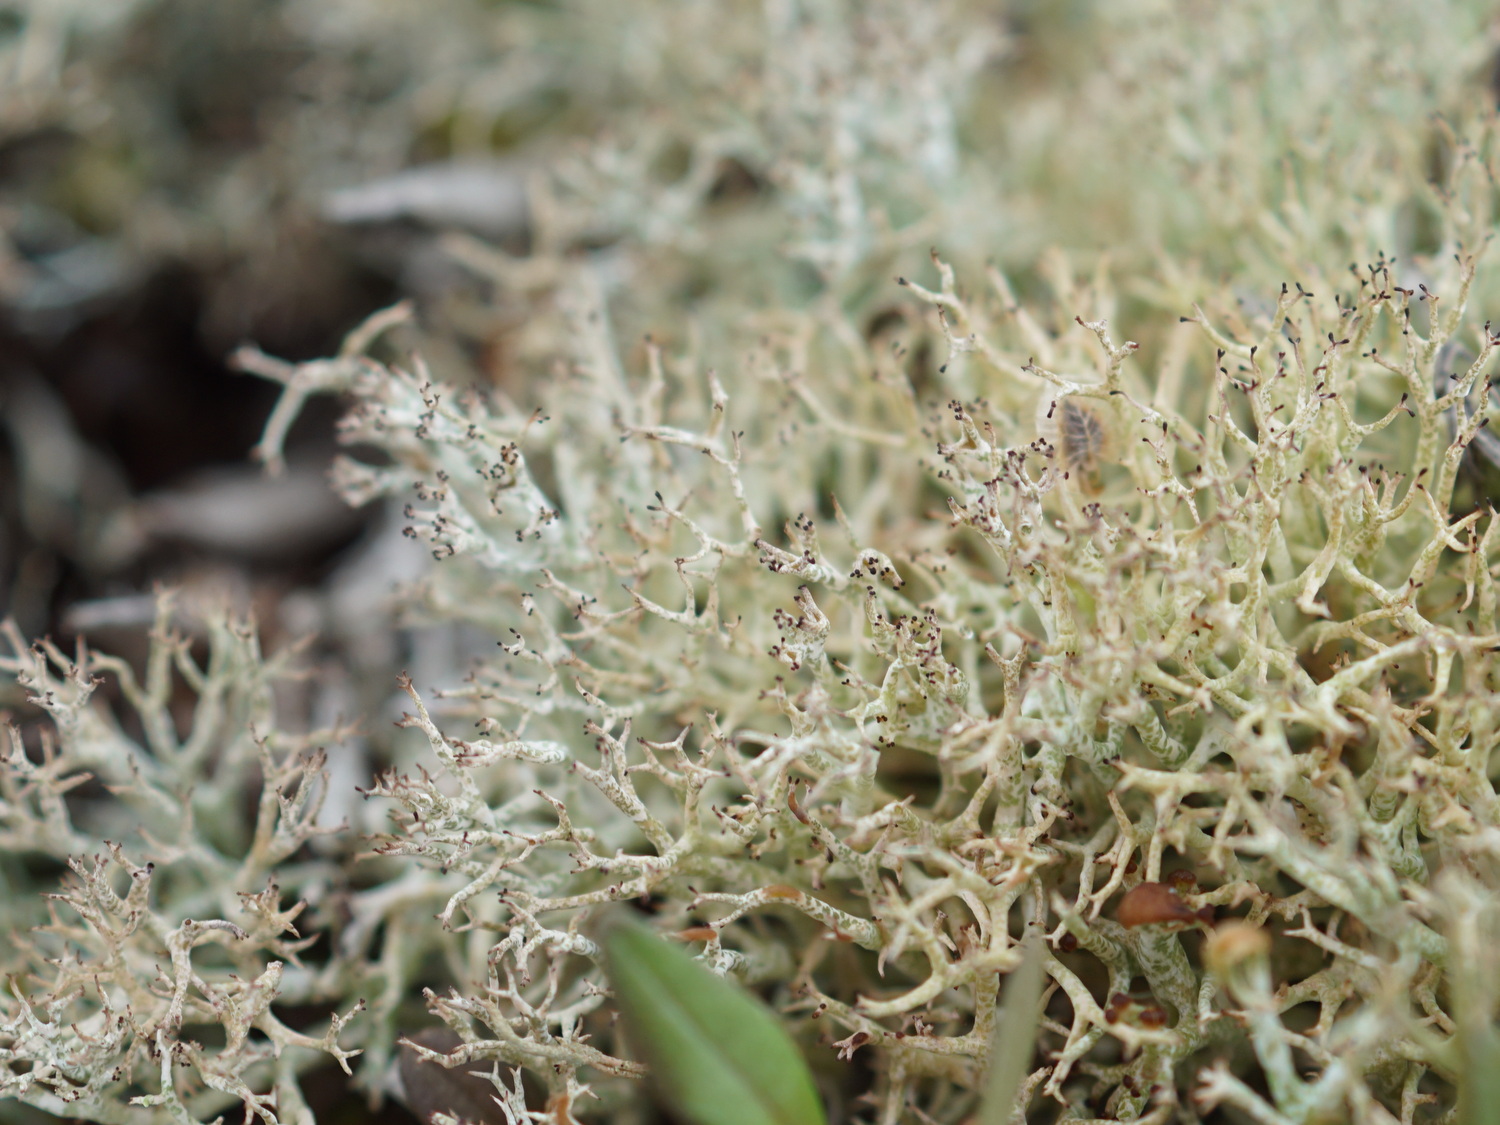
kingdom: Fungi
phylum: Ascomycota
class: Lecanoromycetes
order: Lecanorales
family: Cladoniaceae
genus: Cladonia
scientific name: Cladonia portentosa
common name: hede-rensdyrlav
